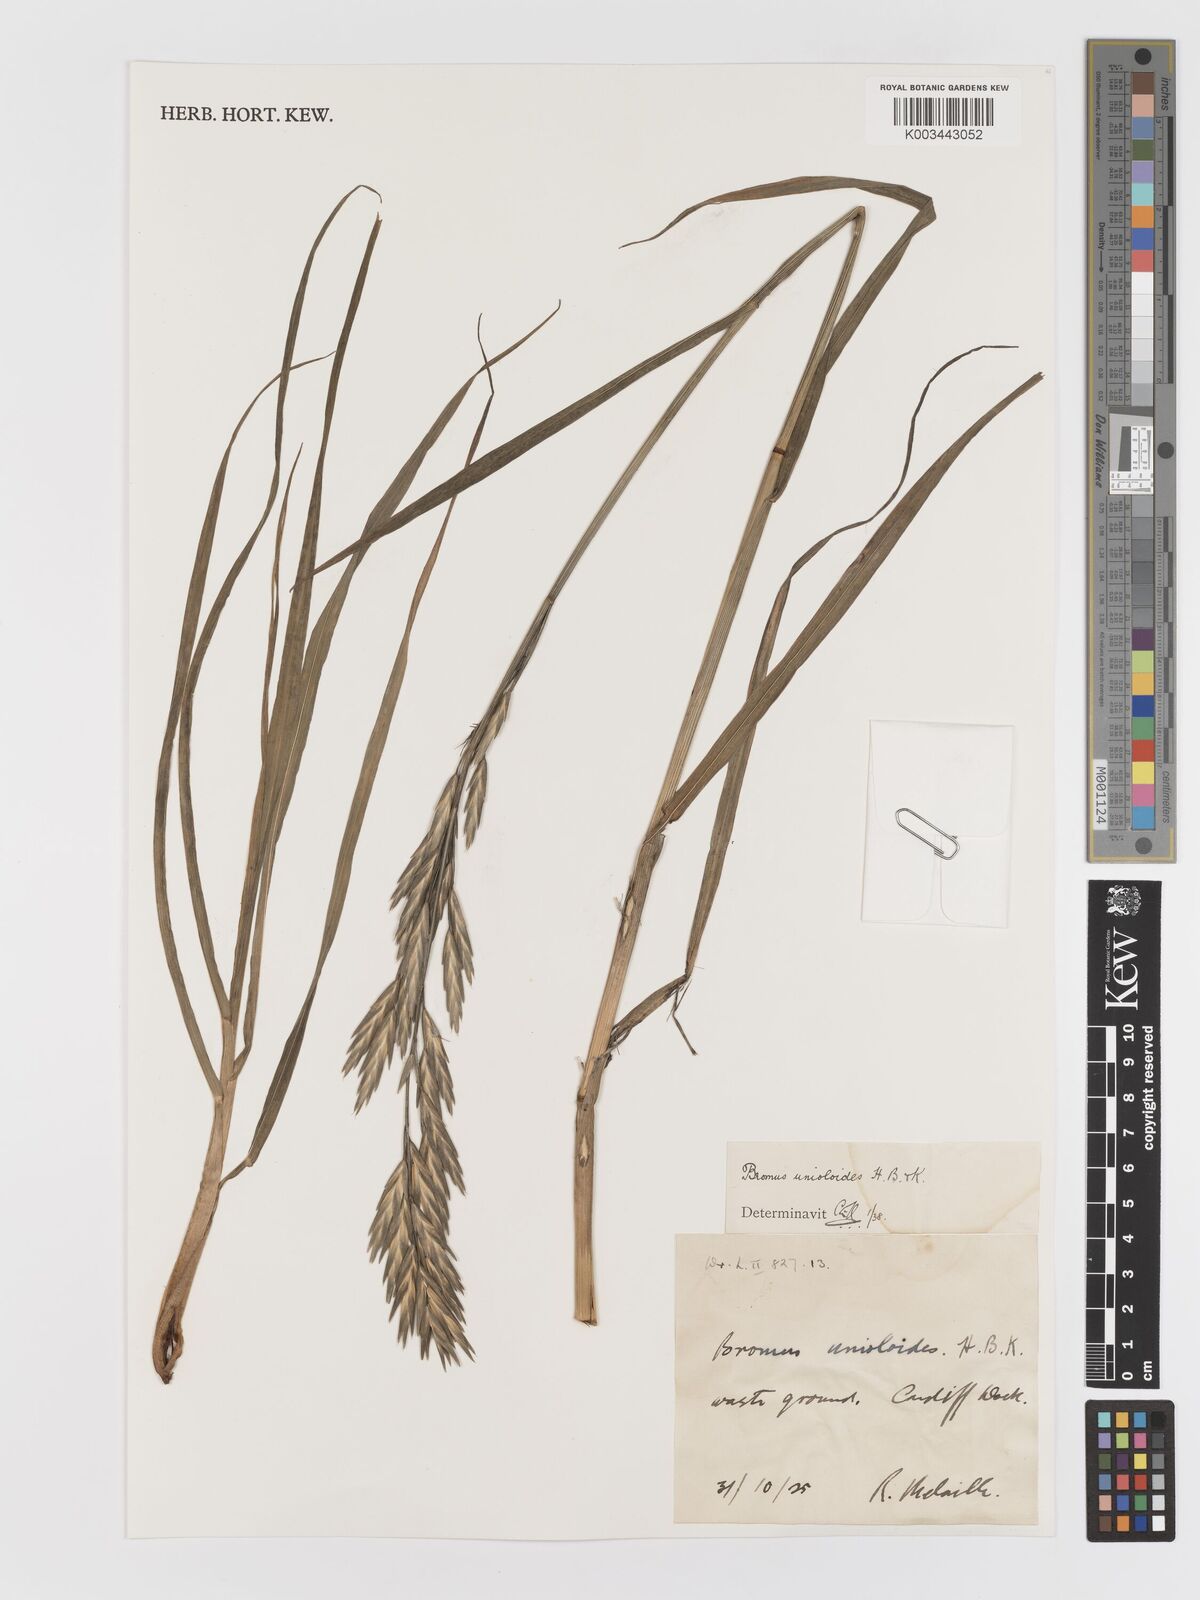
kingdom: Plantae
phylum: Tracheophyta
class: Liliopsida
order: Poales
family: Poaceae
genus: Bromus
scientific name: Bromus catharticus
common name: Rescuegrass
